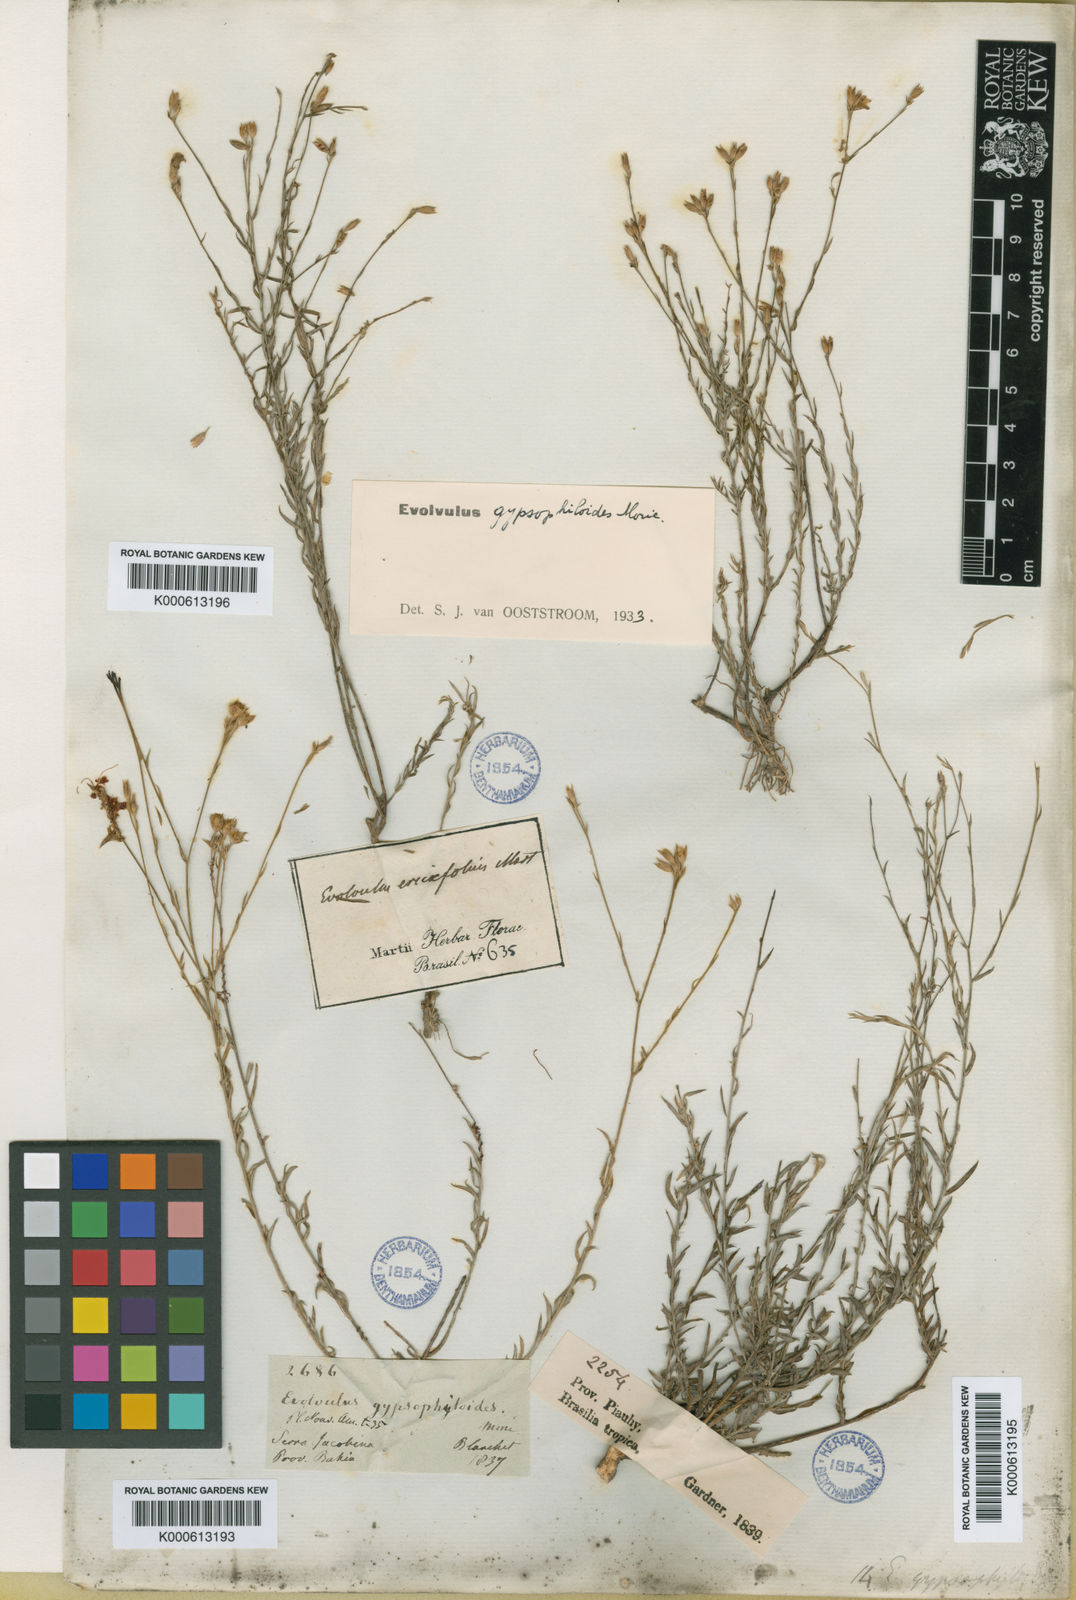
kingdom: Plantae
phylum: Tracheophyta
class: Magnoliopsida
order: Solanales
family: Convolvulaceae
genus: Evolvulus
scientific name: Evolvulus gypsophiloides
